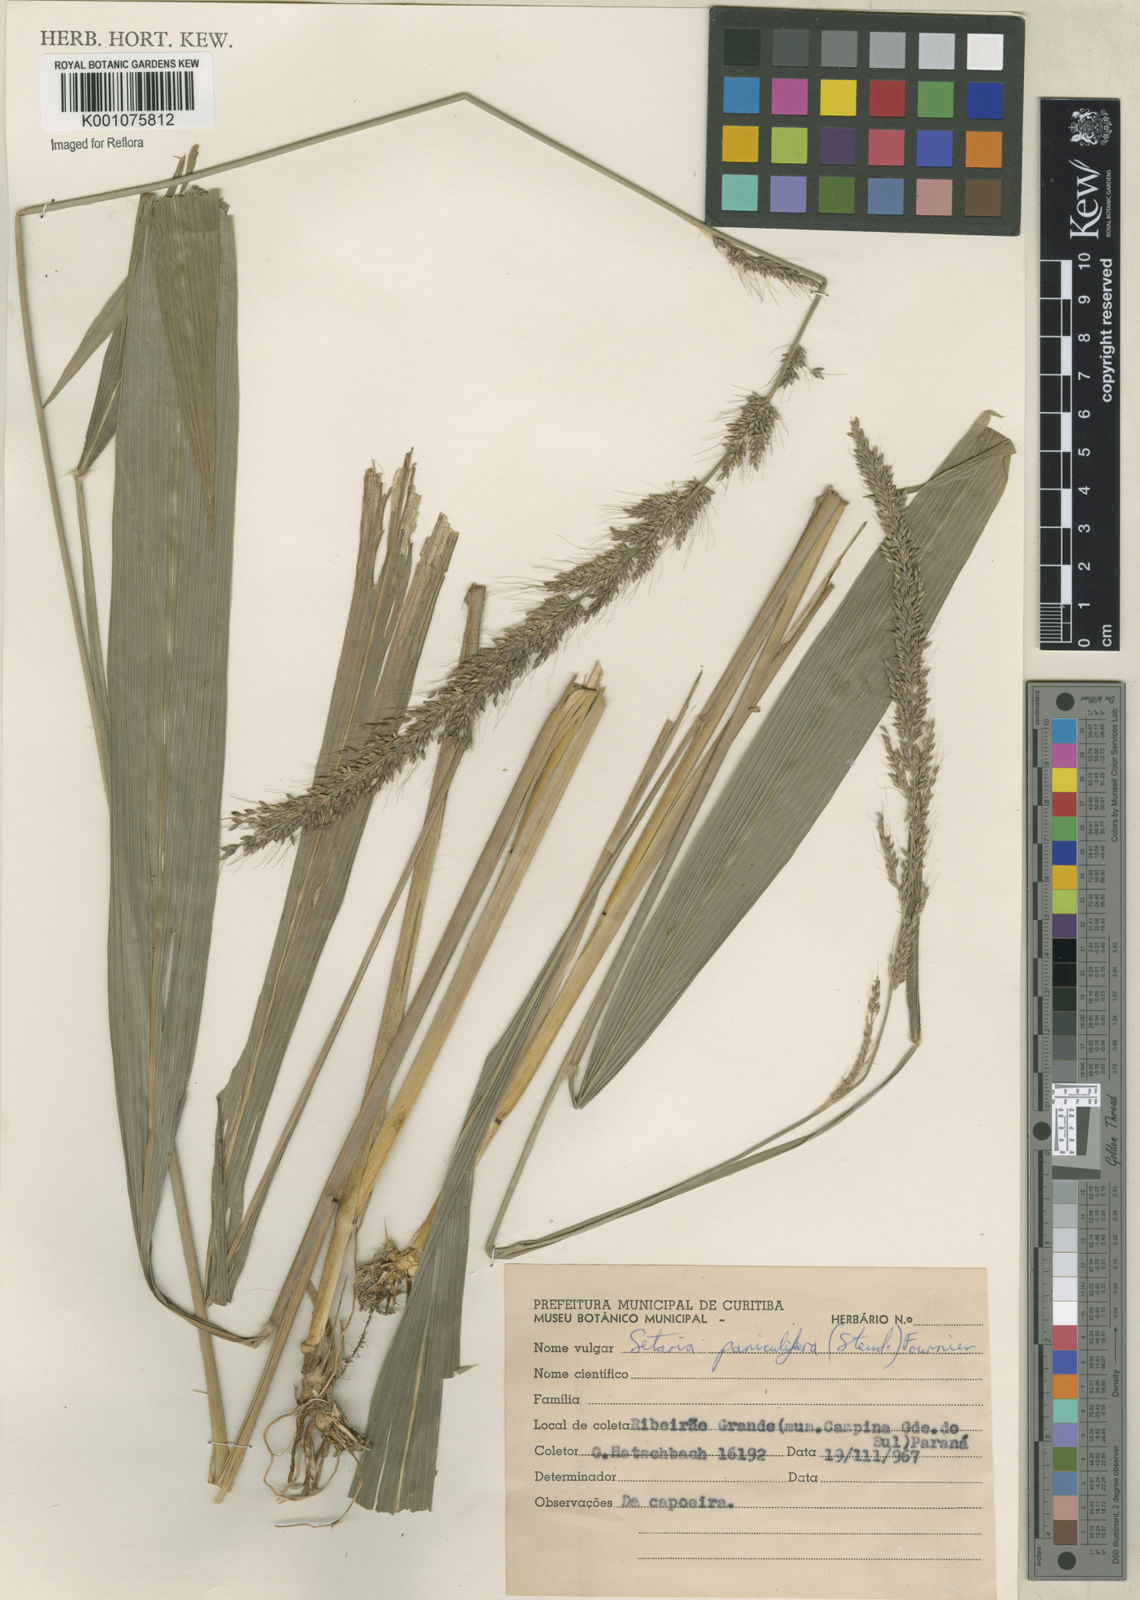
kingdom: Plantae
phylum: Tracheophyta
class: Liliopsida
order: Poales
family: Poaceae
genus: Setaria
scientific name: Setaria megaphylla
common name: Bigleaf bristlegrass
